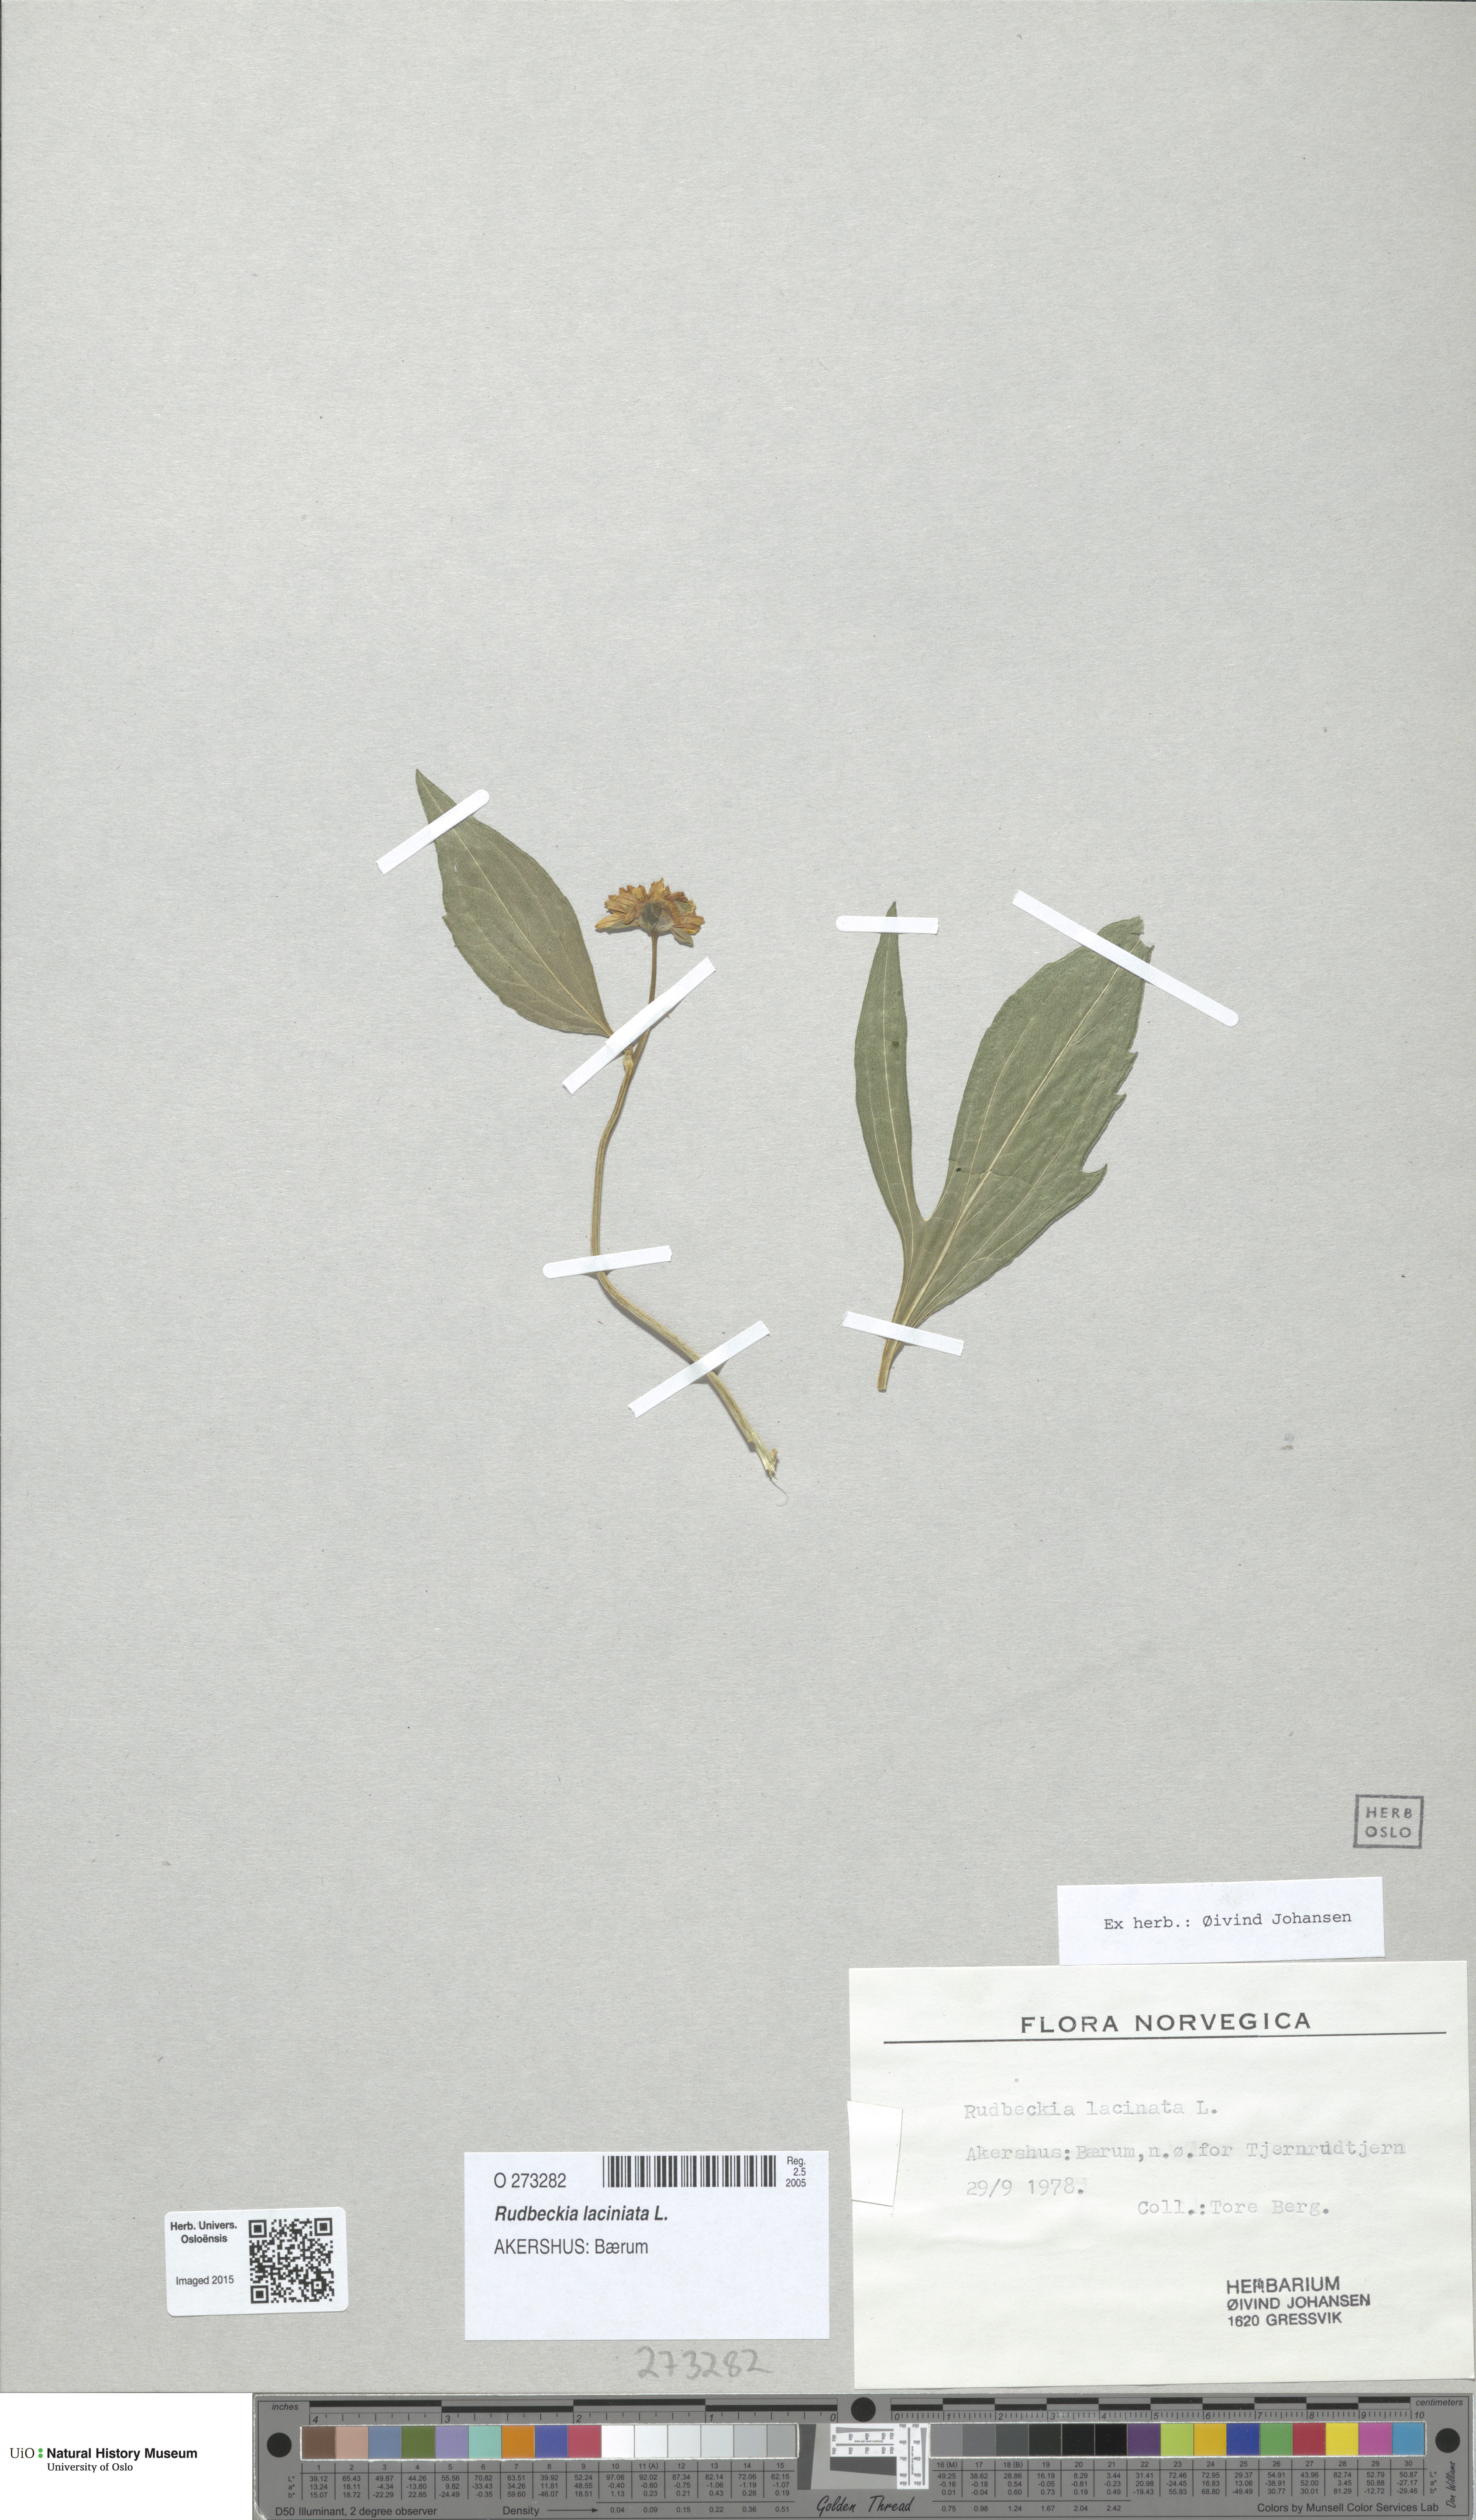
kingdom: Plantae
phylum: Tracheophyta
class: Magnoliopsida
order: Asterales
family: Asteraceae
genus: Rudbeckia
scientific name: Rudbeckia laciniata
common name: Coneflower
